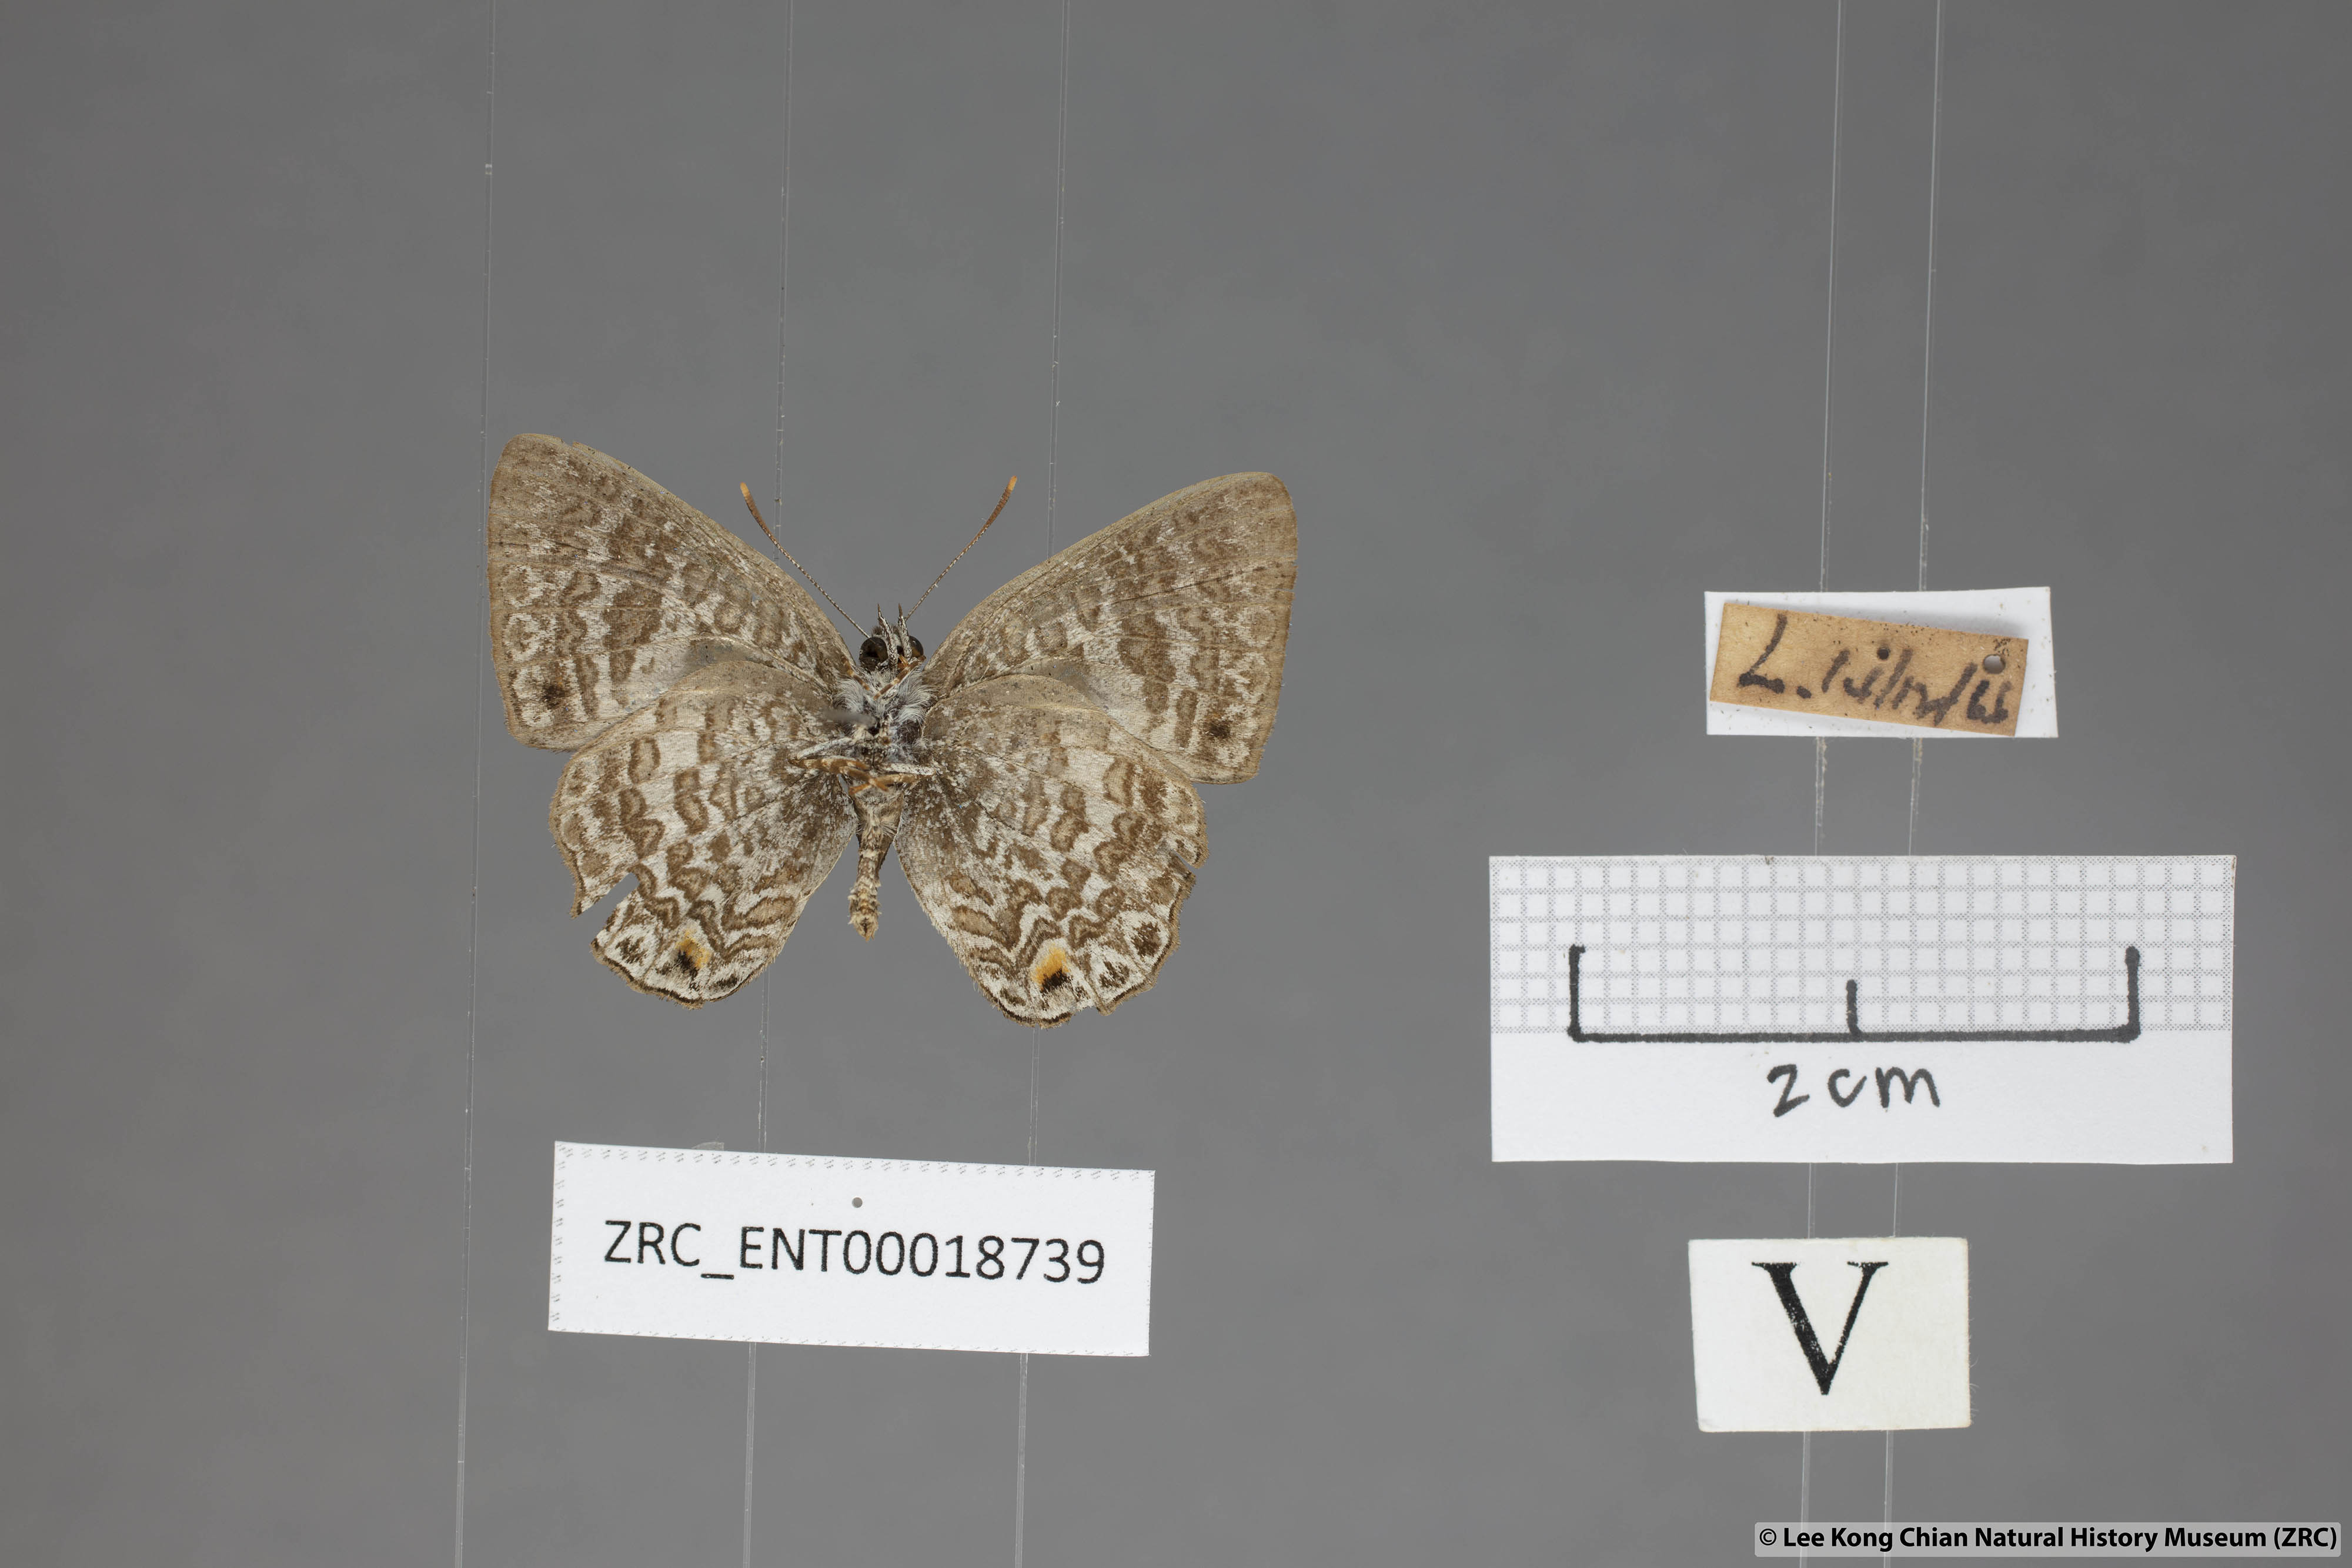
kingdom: Animalia
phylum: Arthropoda
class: Insecta
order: Lepidoptera
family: Lycaenidae
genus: Poritia
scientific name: Poritia erycinoides
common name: Blue gem
